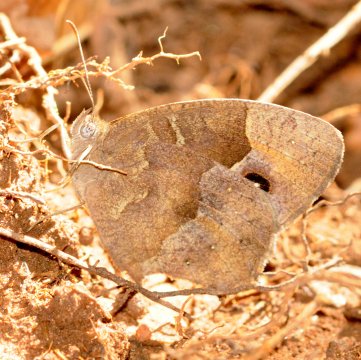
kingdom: Animalia
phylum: Arthropoda
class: Insecta
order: Lepidoptera
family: Nymphalidae
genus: Bicyclus
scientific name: Bicyclus
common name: Bush Browns
